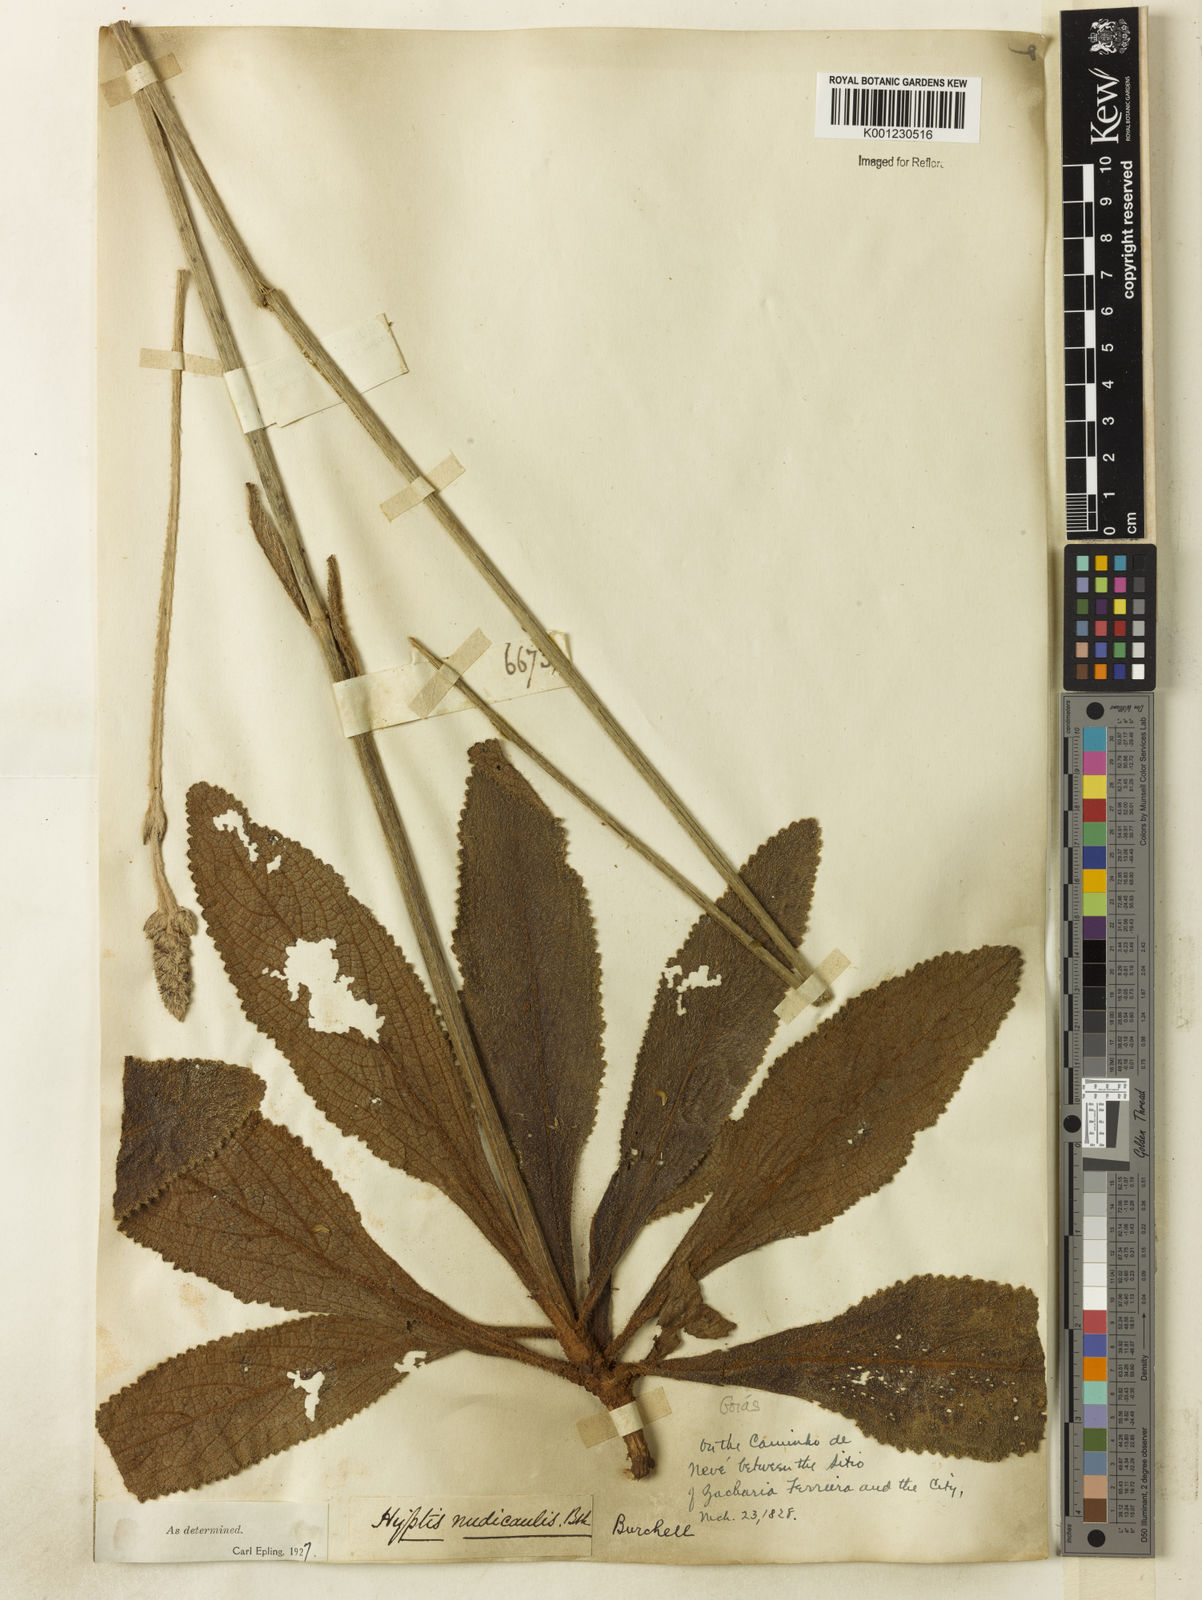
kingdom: Plantae
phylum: Tracheophyta
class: Magnoliopsida
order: Lamiales
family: Lamiaceae
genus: Hyptis
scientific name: Hyptis nudicaulis
